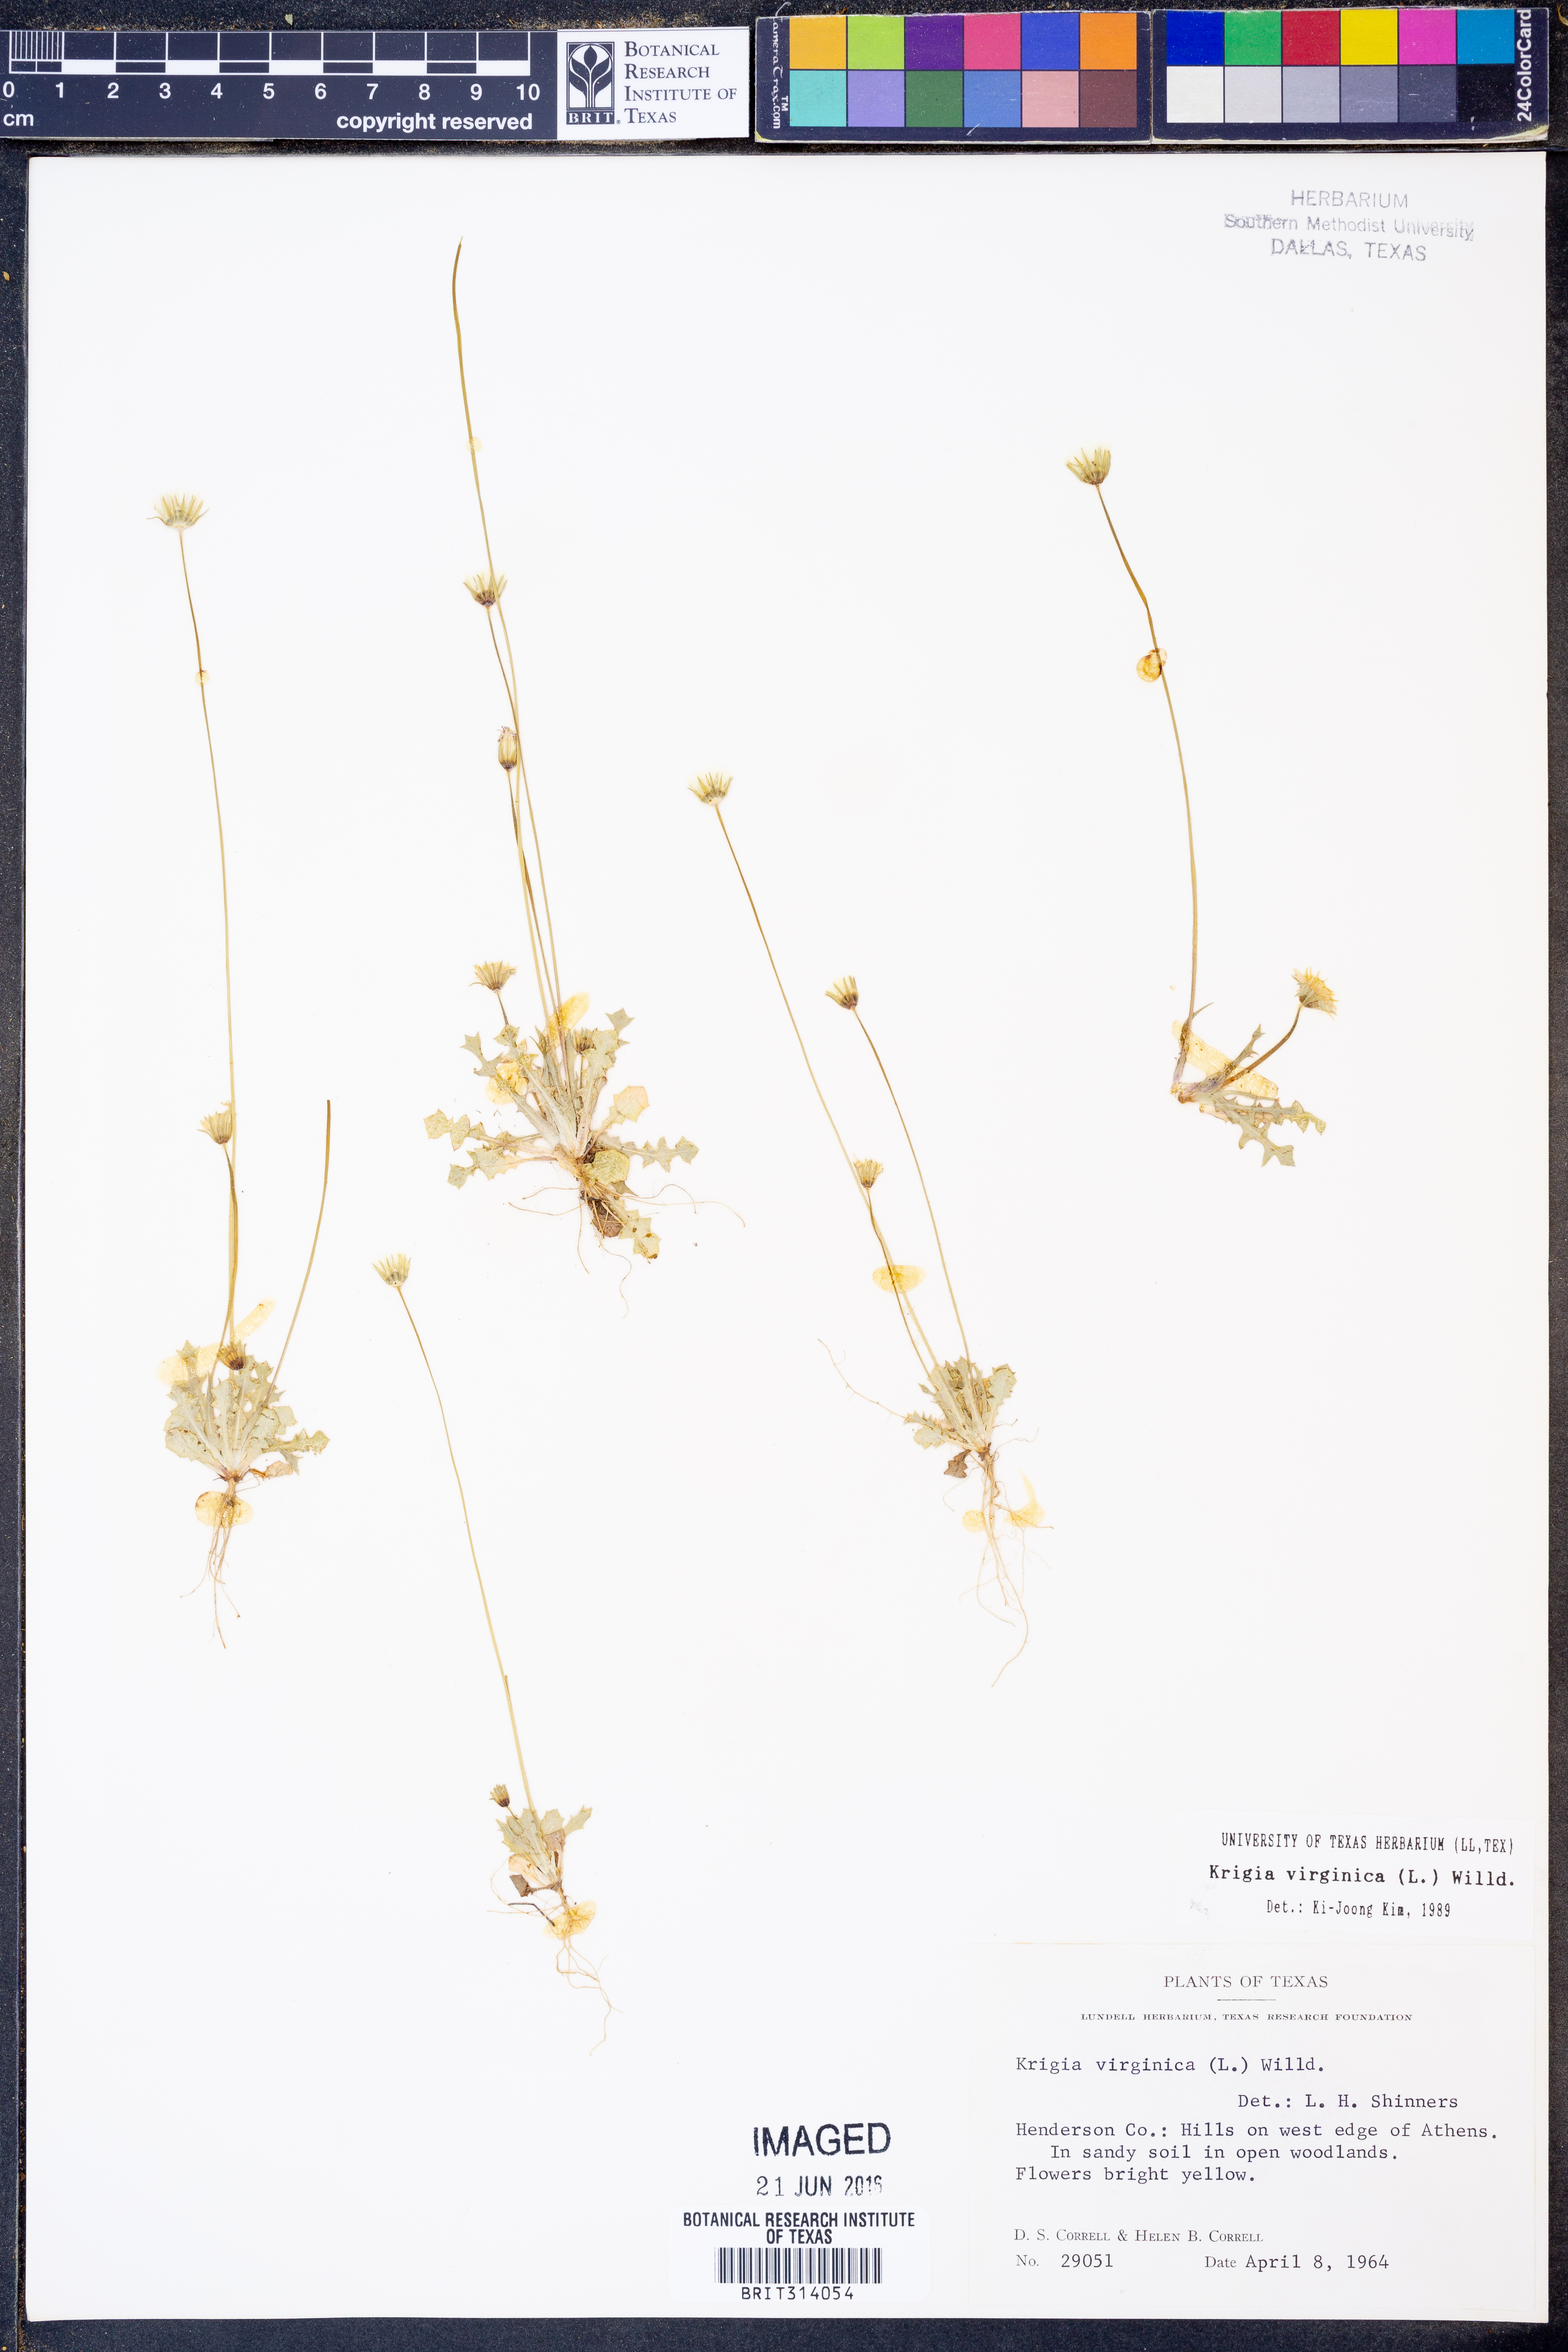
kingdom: Plantae
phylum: Tracheophyta
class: Magnoliopsida
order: Asterales
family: Asteraceae
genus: Krigia
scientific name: Krigia virginica
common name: Virginia dwarf-dandelion
